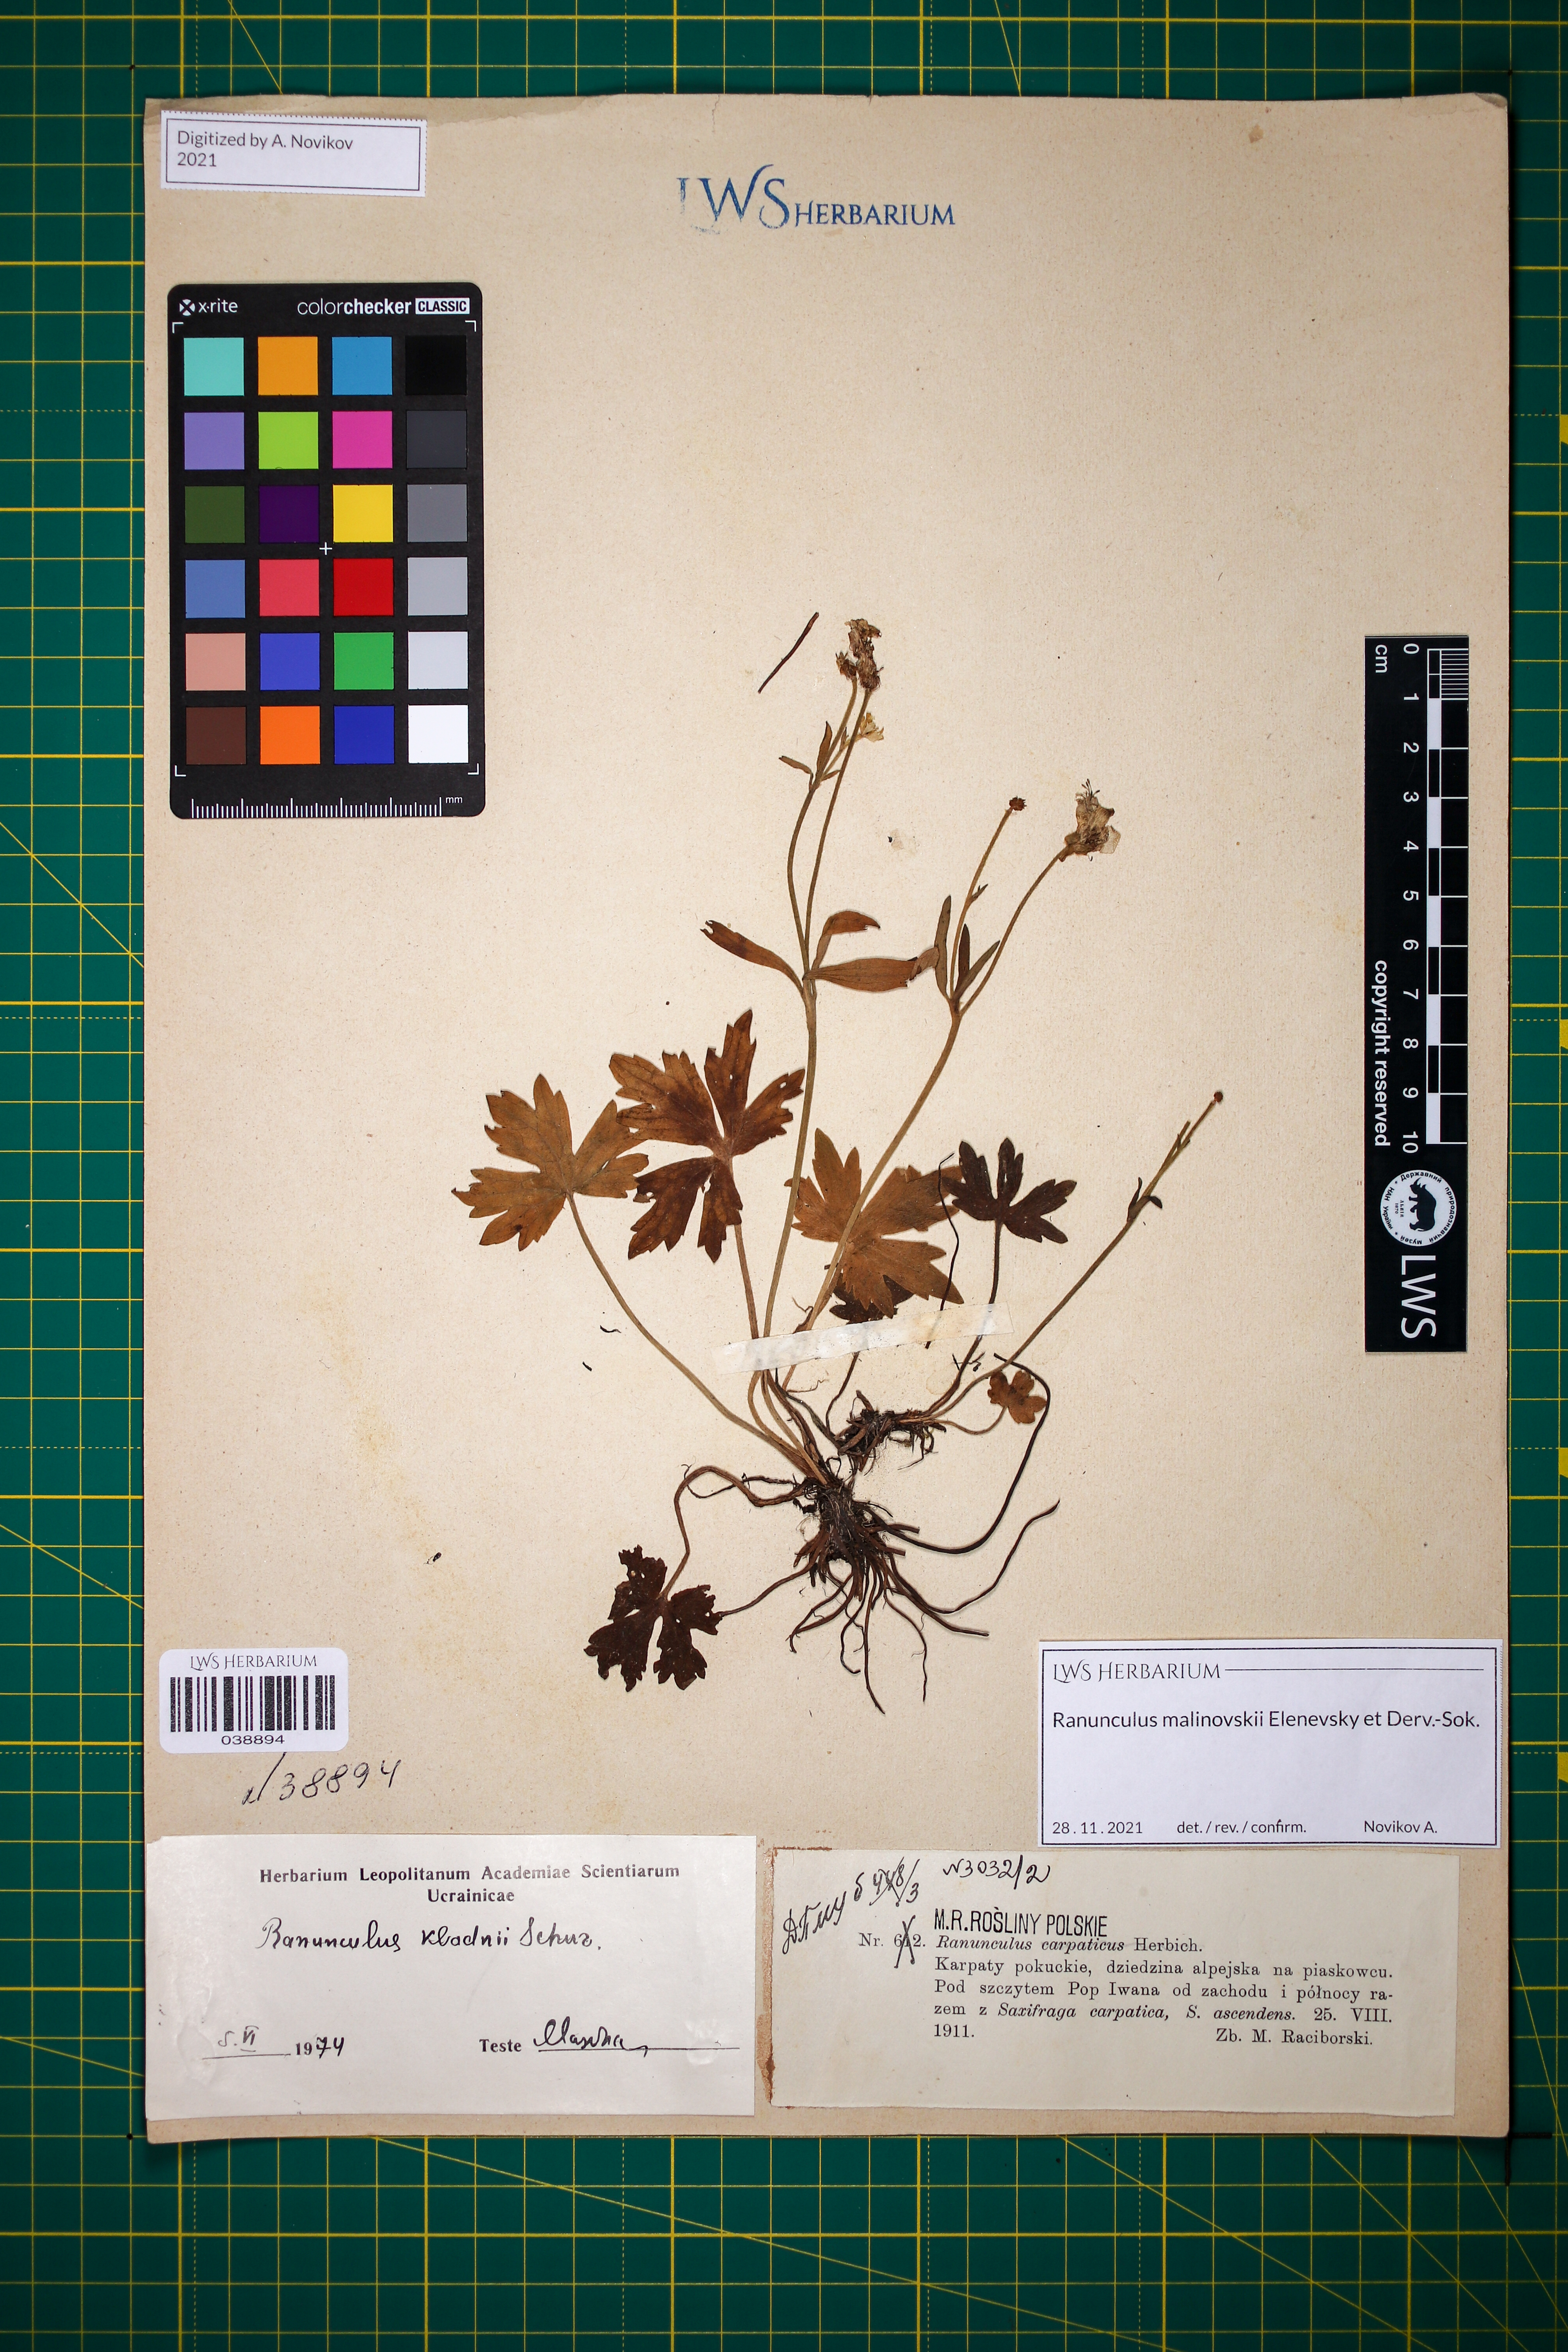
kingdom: Plantae
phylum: Tracheophyta
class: Magnoliopsida
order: Ranunculales
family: Ranunculaceae
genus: Ranunculus
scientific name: Ranunculus malinovskii
